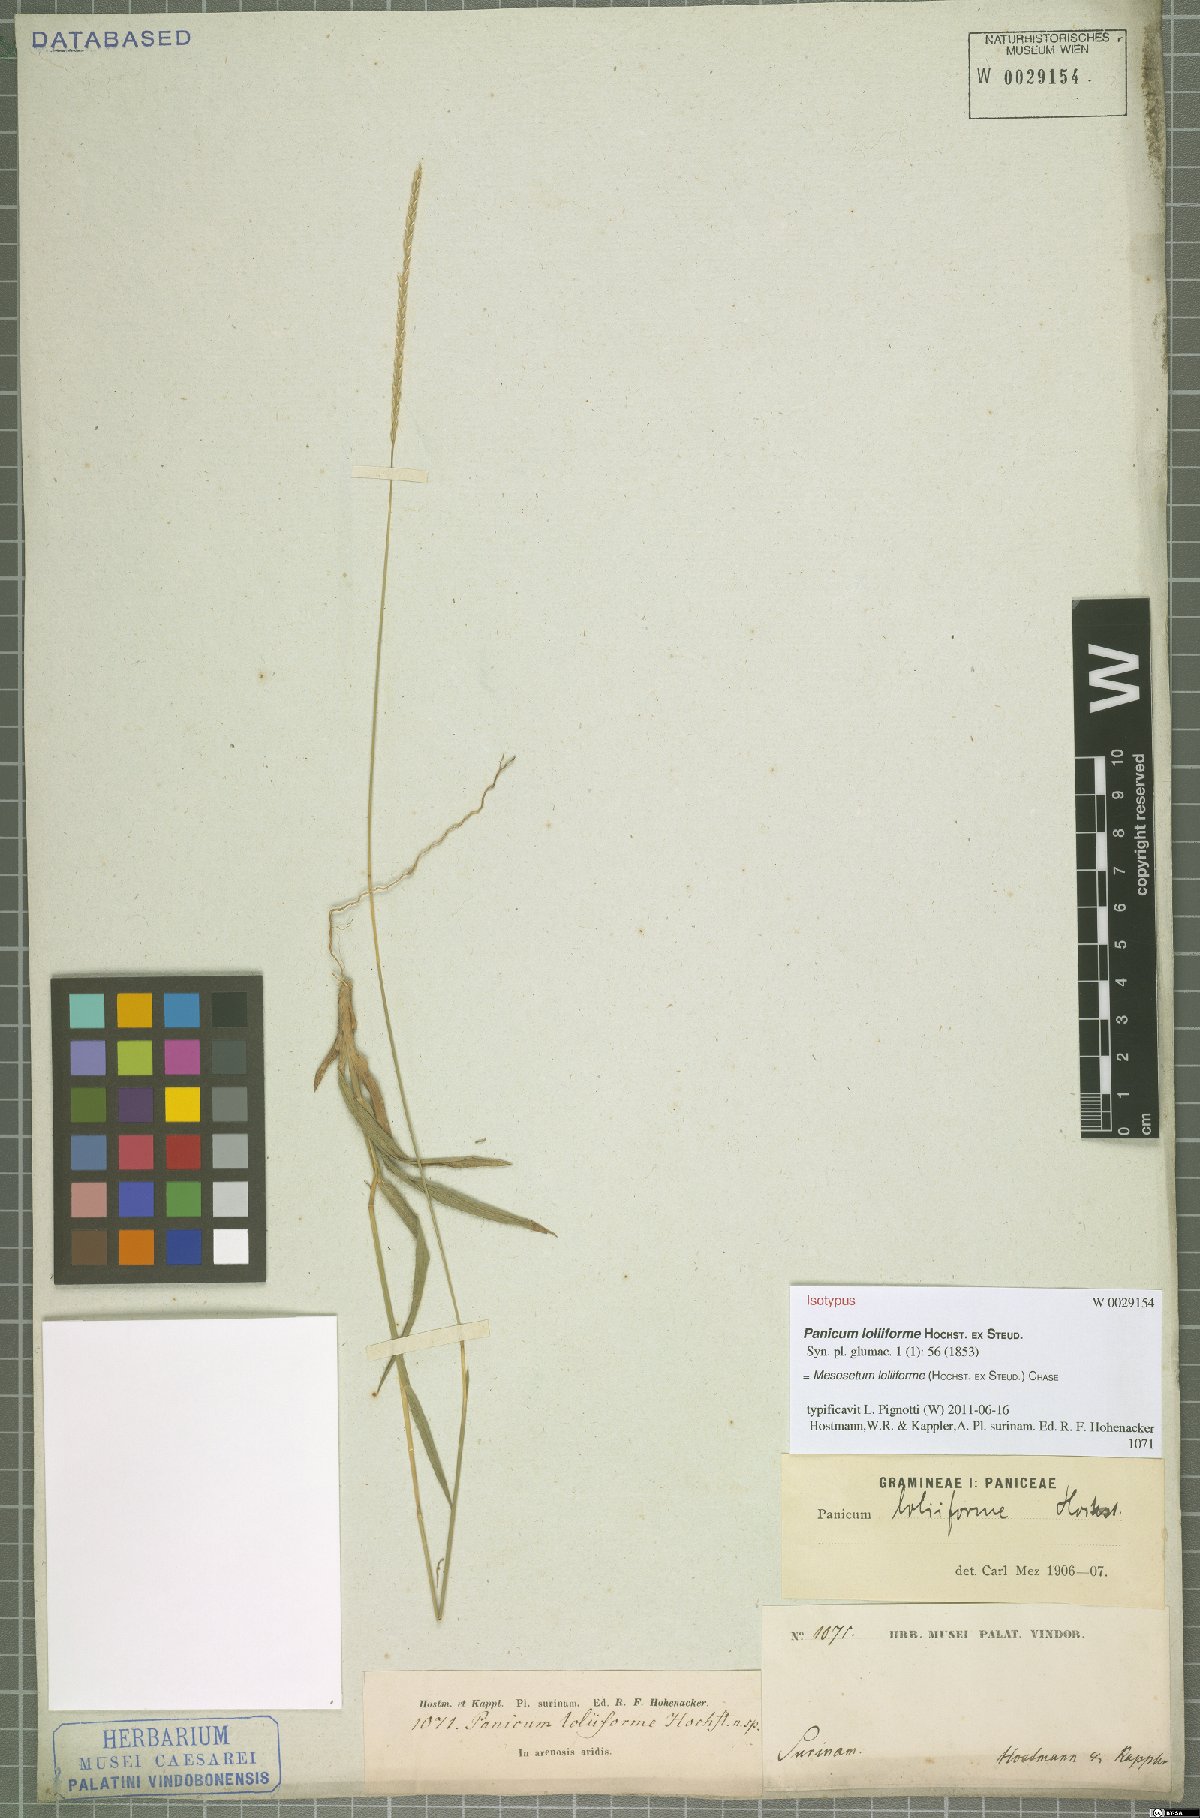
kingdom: Plantae
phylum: Tracheophyta
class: Liliopsida
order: Poales
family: Poaceae
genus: Mesosetum
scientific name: Mesosetum loliiforme
